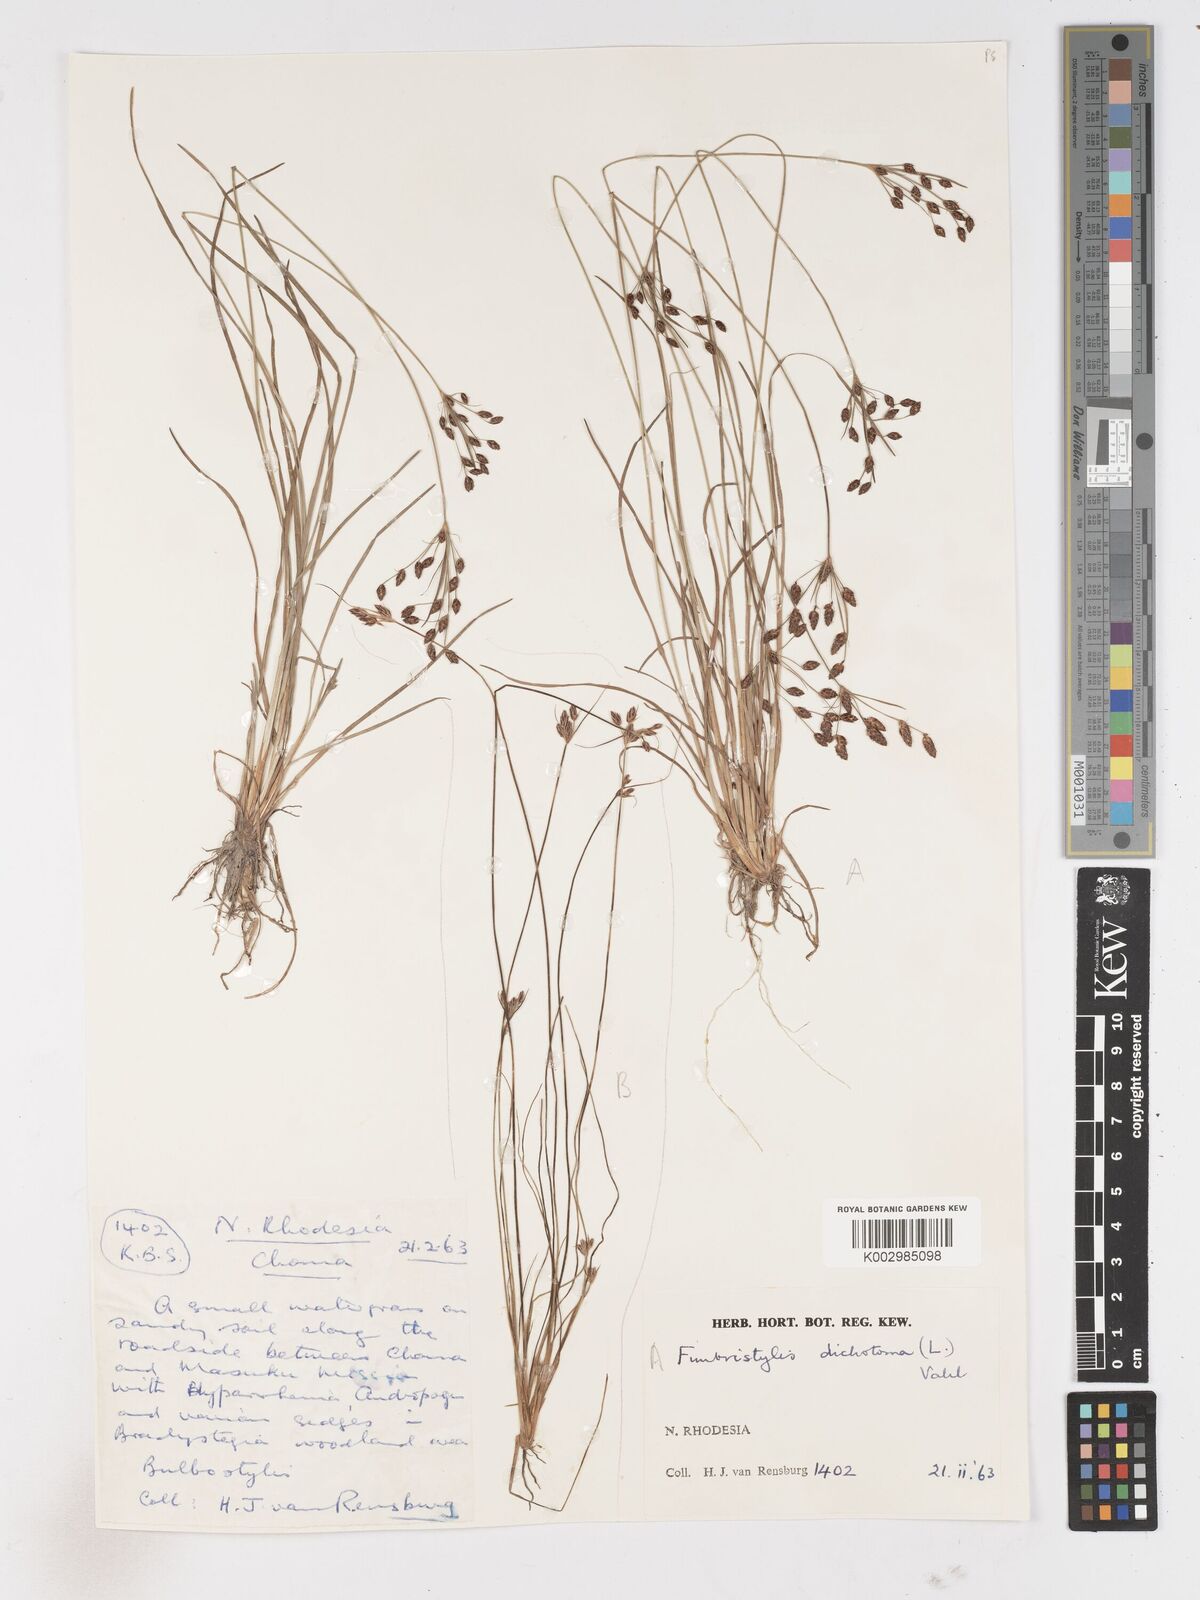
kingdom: Plantae
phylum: Tracheophyta
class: Liliopsida
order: Poales
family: Cyperaceae
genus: Fimbristylis
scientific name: Fimbristylis dichotoma
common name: Forked fimbry
